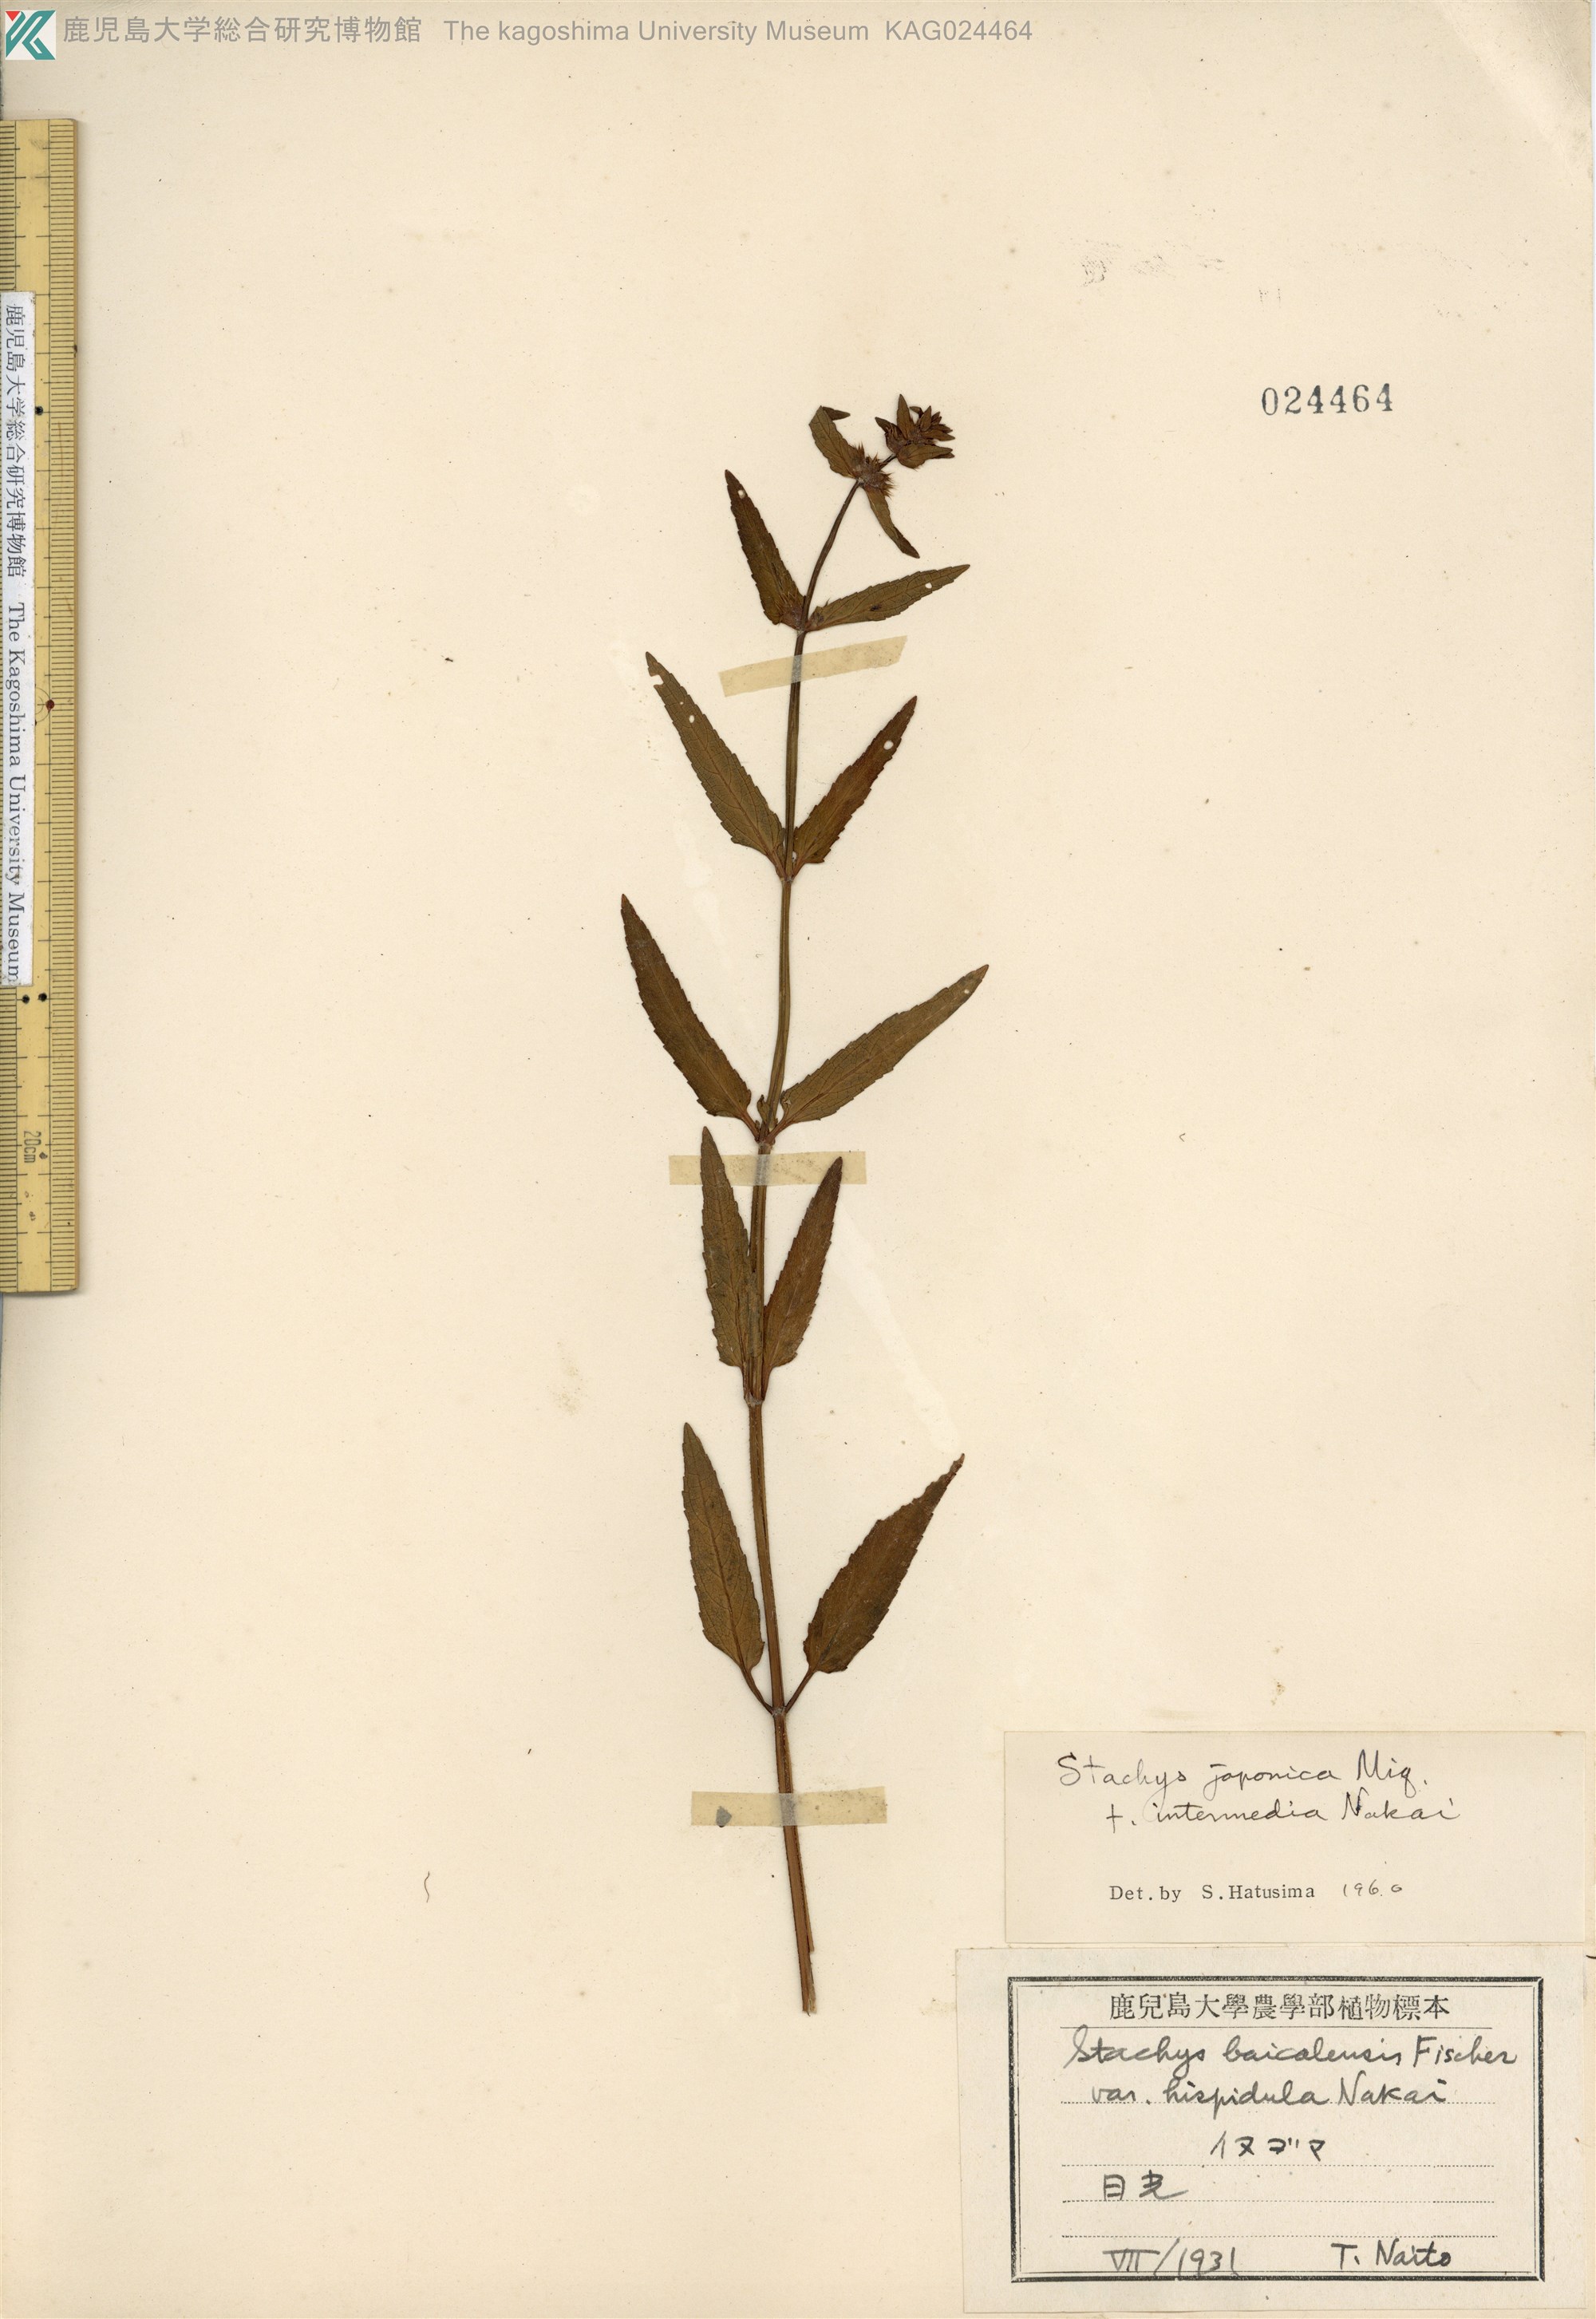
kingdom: Plantae
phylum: Tracheophyta
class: Magnoliopsida
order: Lamiales
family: Lamiaceae
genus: Stachys
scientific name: Stachys aspera
